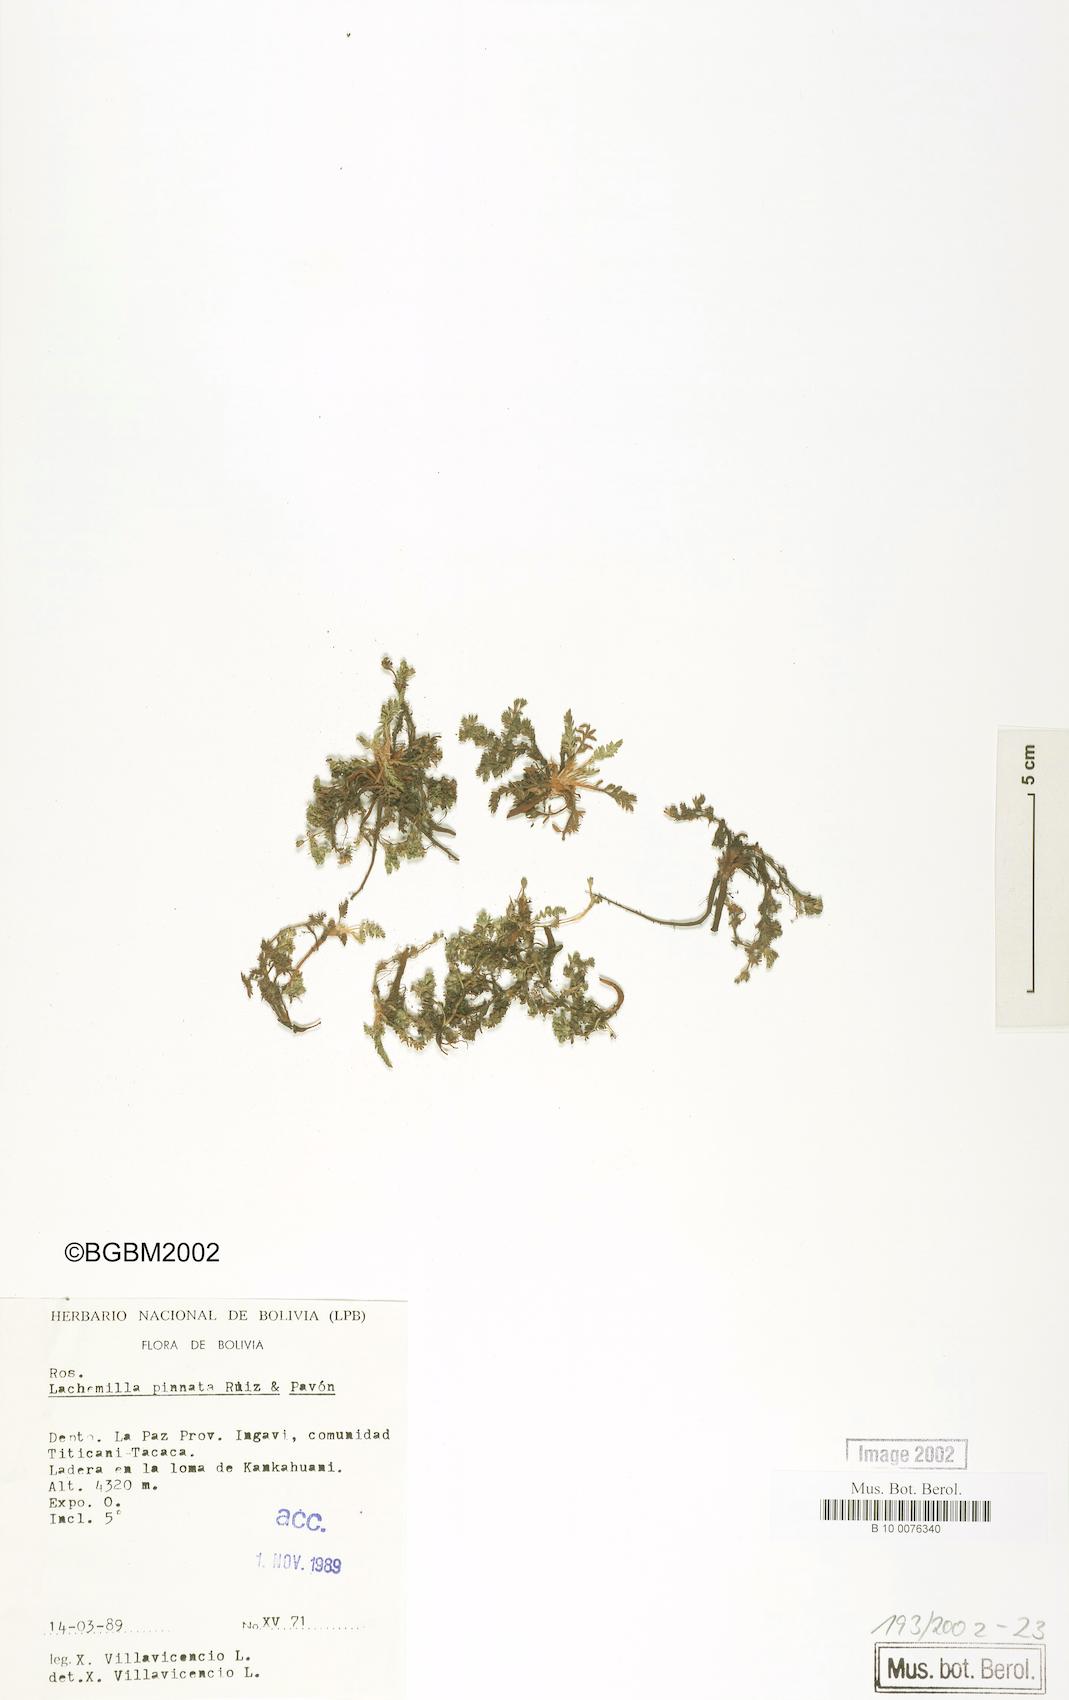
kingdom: Plantae
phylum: Tracheophyta
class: Magnoliopsida
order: Rosales
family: Rosaceae
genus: Lachemilla
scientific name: Lachemilla pinnata
